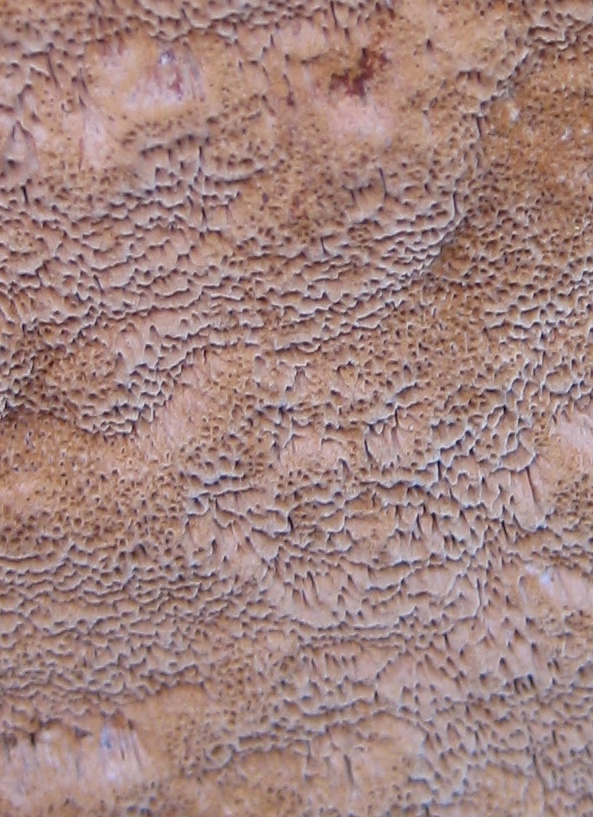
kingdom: Fungi
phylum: Basidiomycota
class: Agaricomycetes
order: Hymenochaetales
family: Hymenochaetaceae
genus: Fuscoporia
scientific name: Fuscoporia ferrea
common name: skorpe-ildporesvamp
